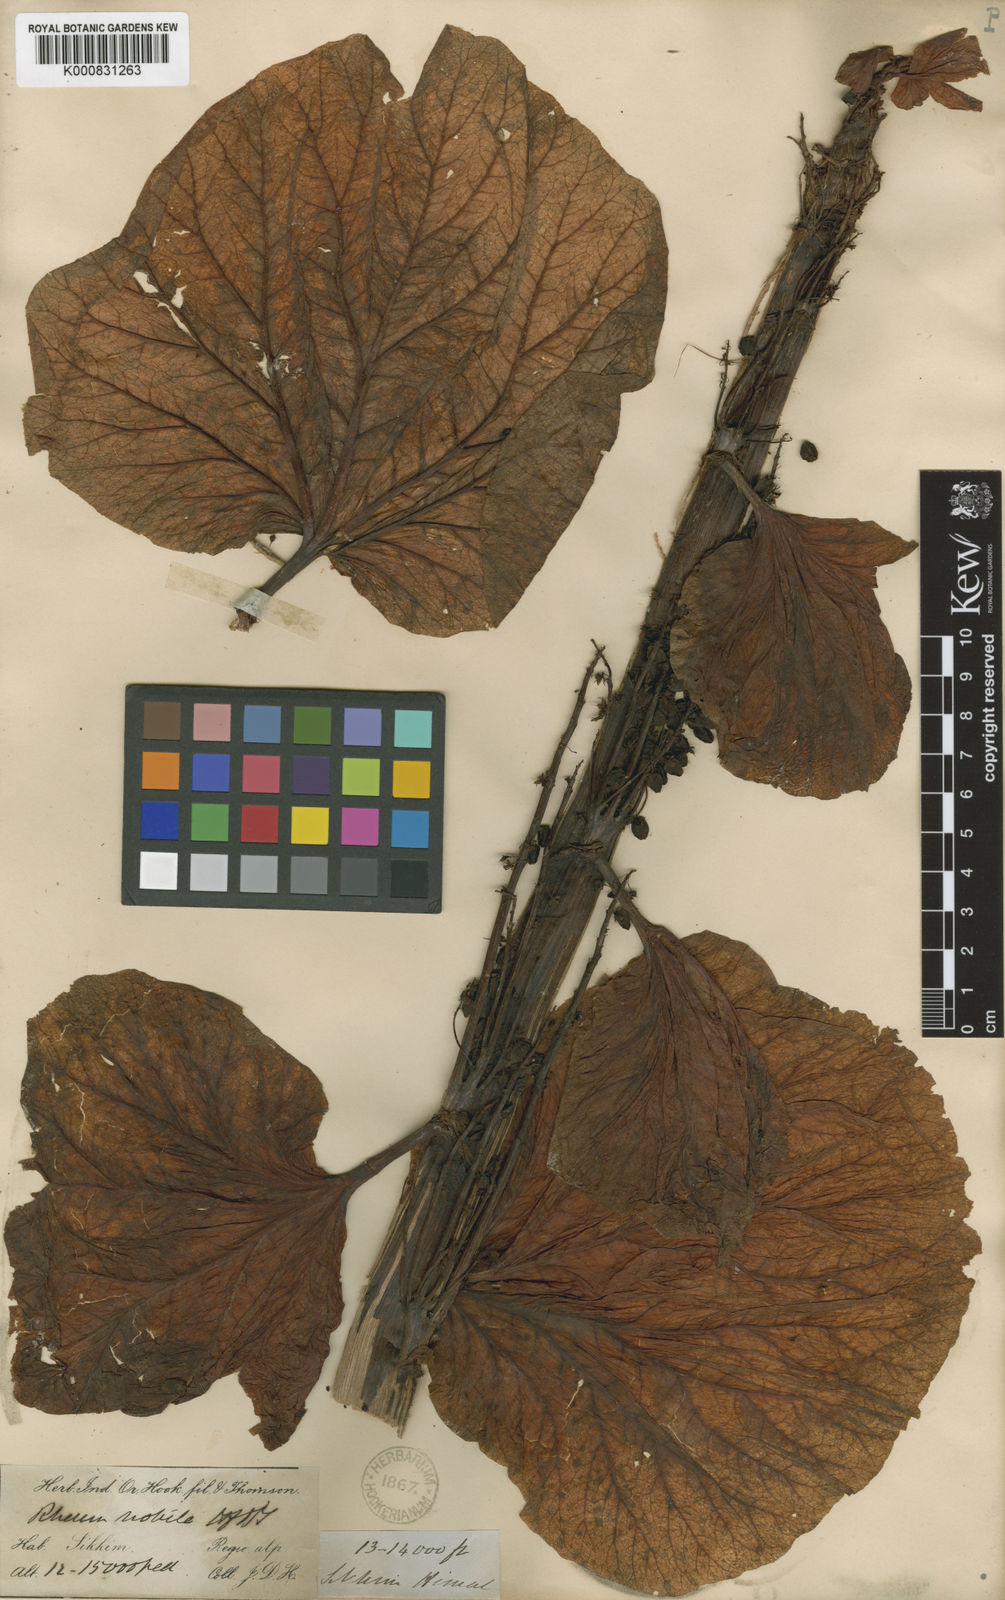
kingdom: Plantae
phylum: Tracheophyta
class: Magnoliopsida
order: Caryophyllales
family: Polygonaceae
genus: Rheum
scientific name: Rheum nobile
